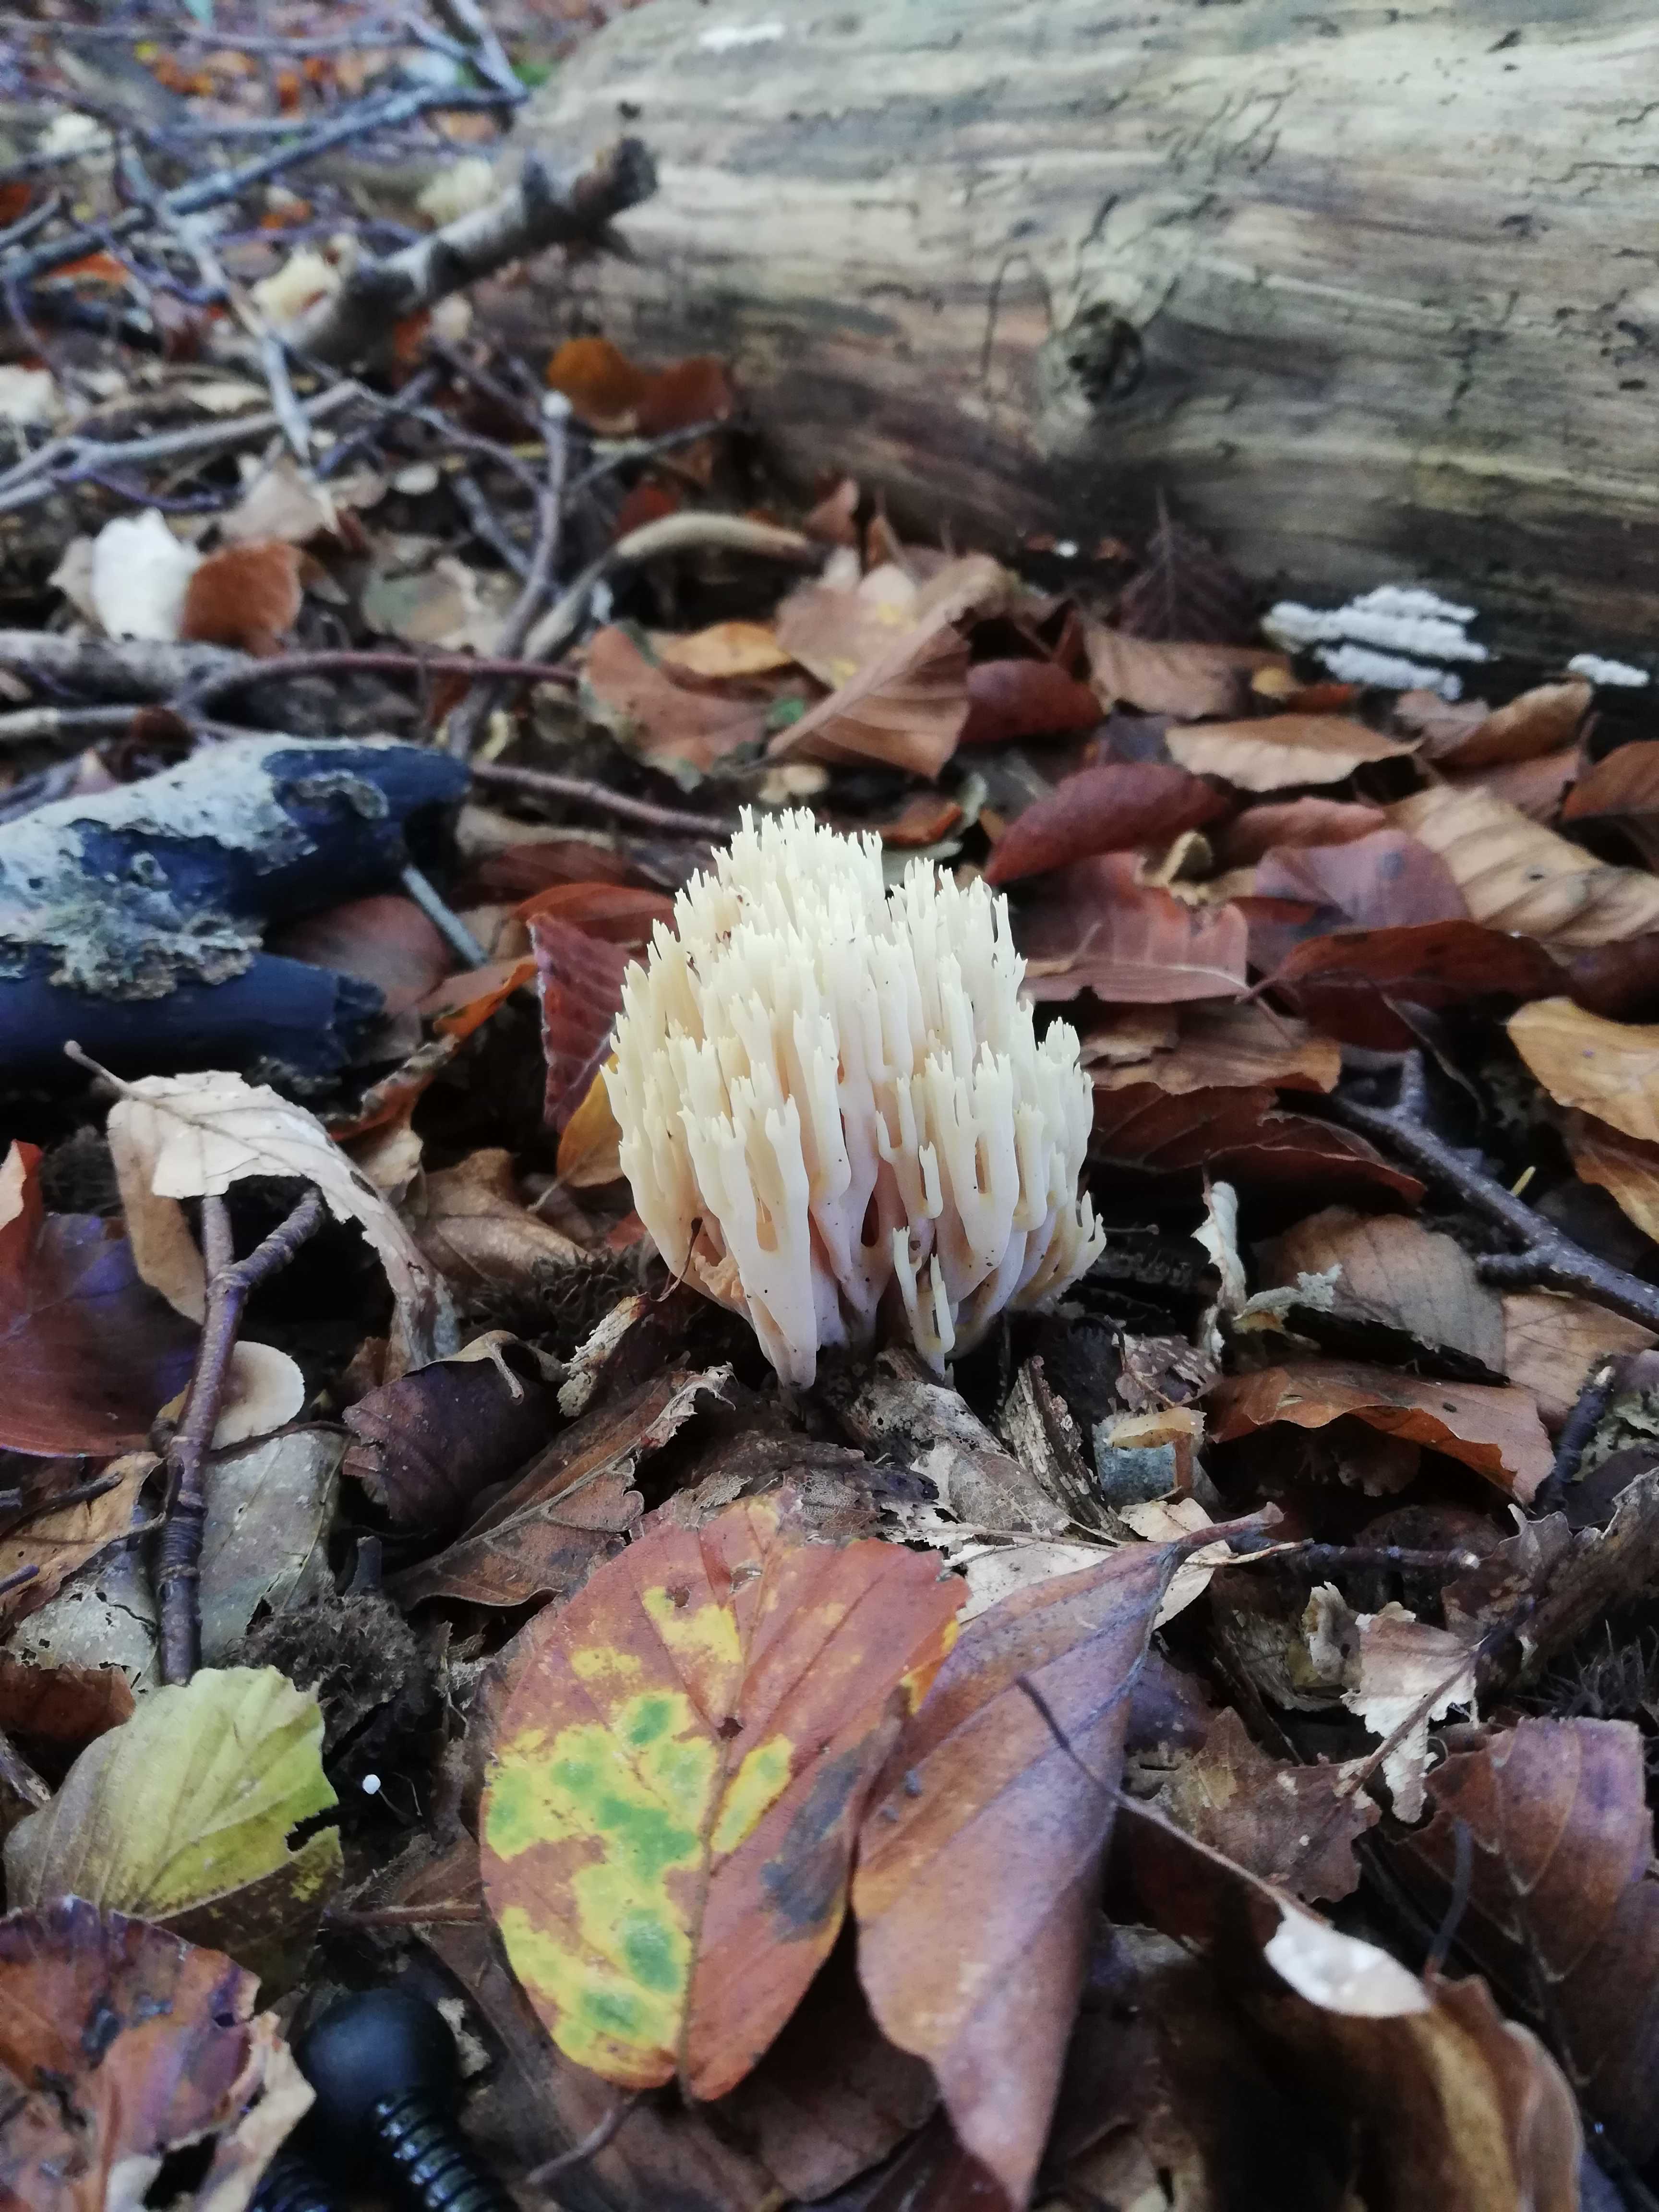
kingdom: Fungi
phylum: Basidiomycota
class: Agaricomycetes
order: Gomphales
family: Gomphaceae
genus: Ramaria
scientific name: Ramaria stricta
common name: rank koralsvamp
